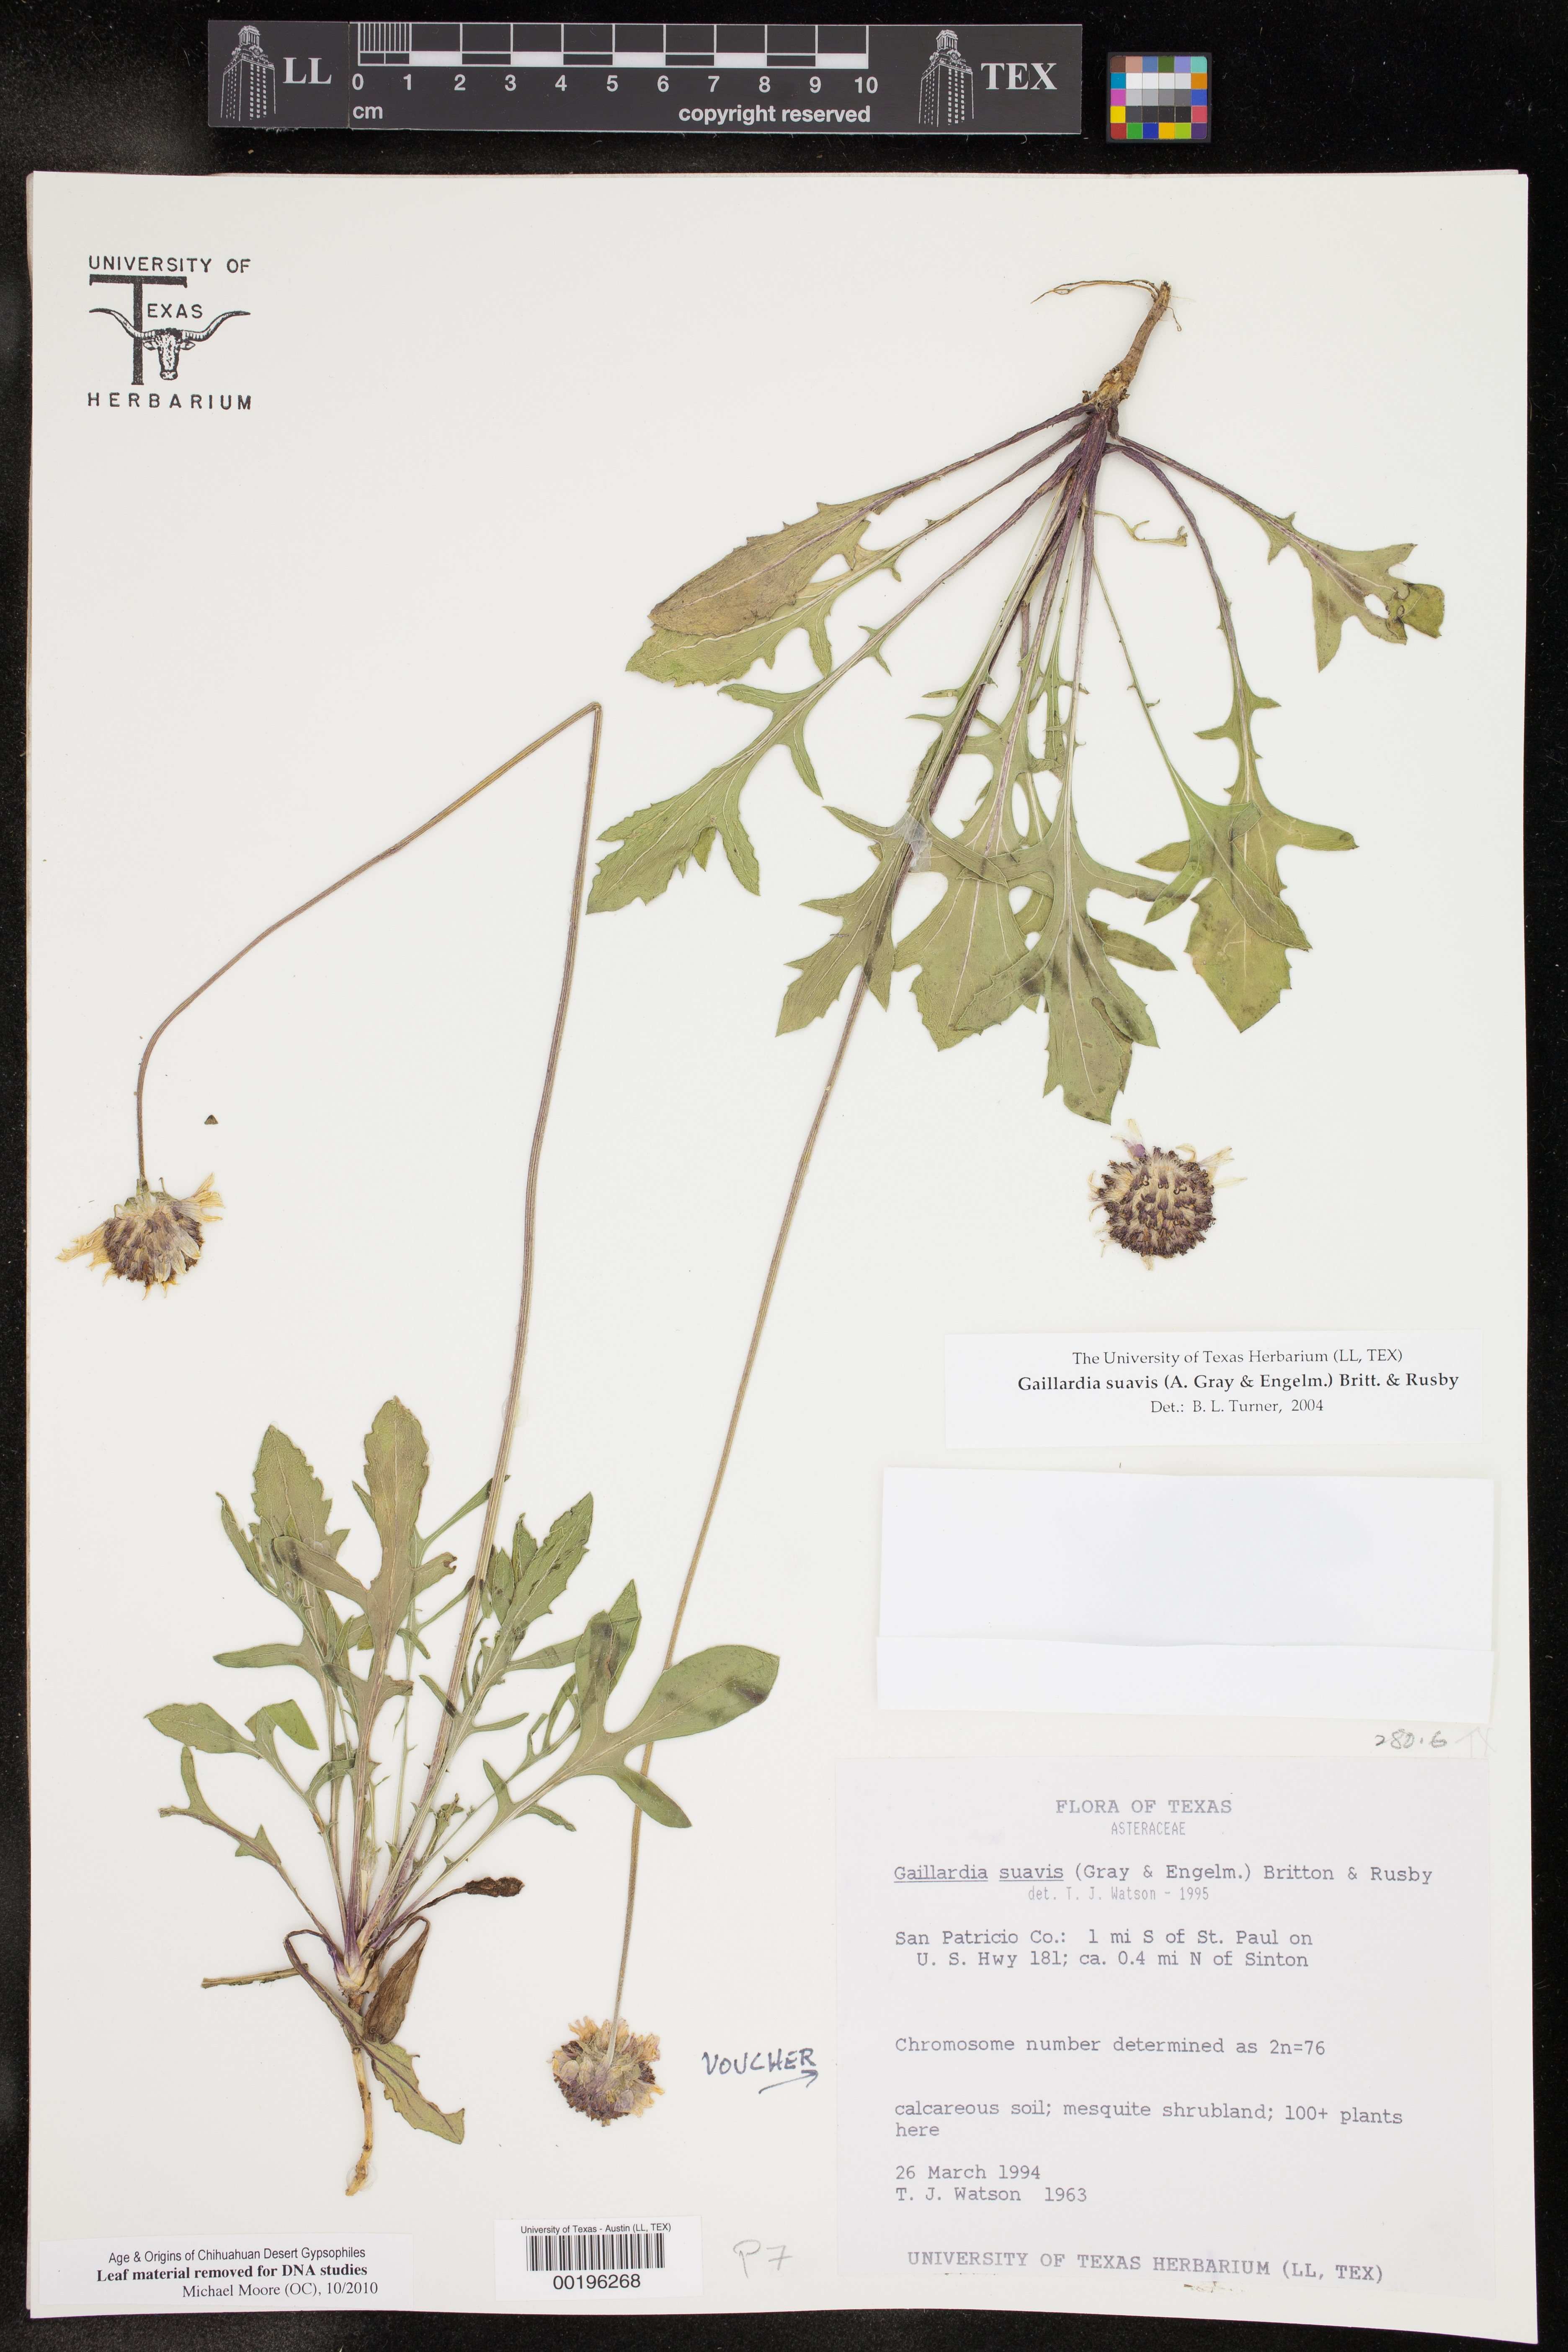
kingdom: Plantae
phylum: Tracheophyta
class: Magnoliopsida
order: Asterales
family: Asteraceae
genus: Gaillardia
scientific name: Gaillardia suavis
